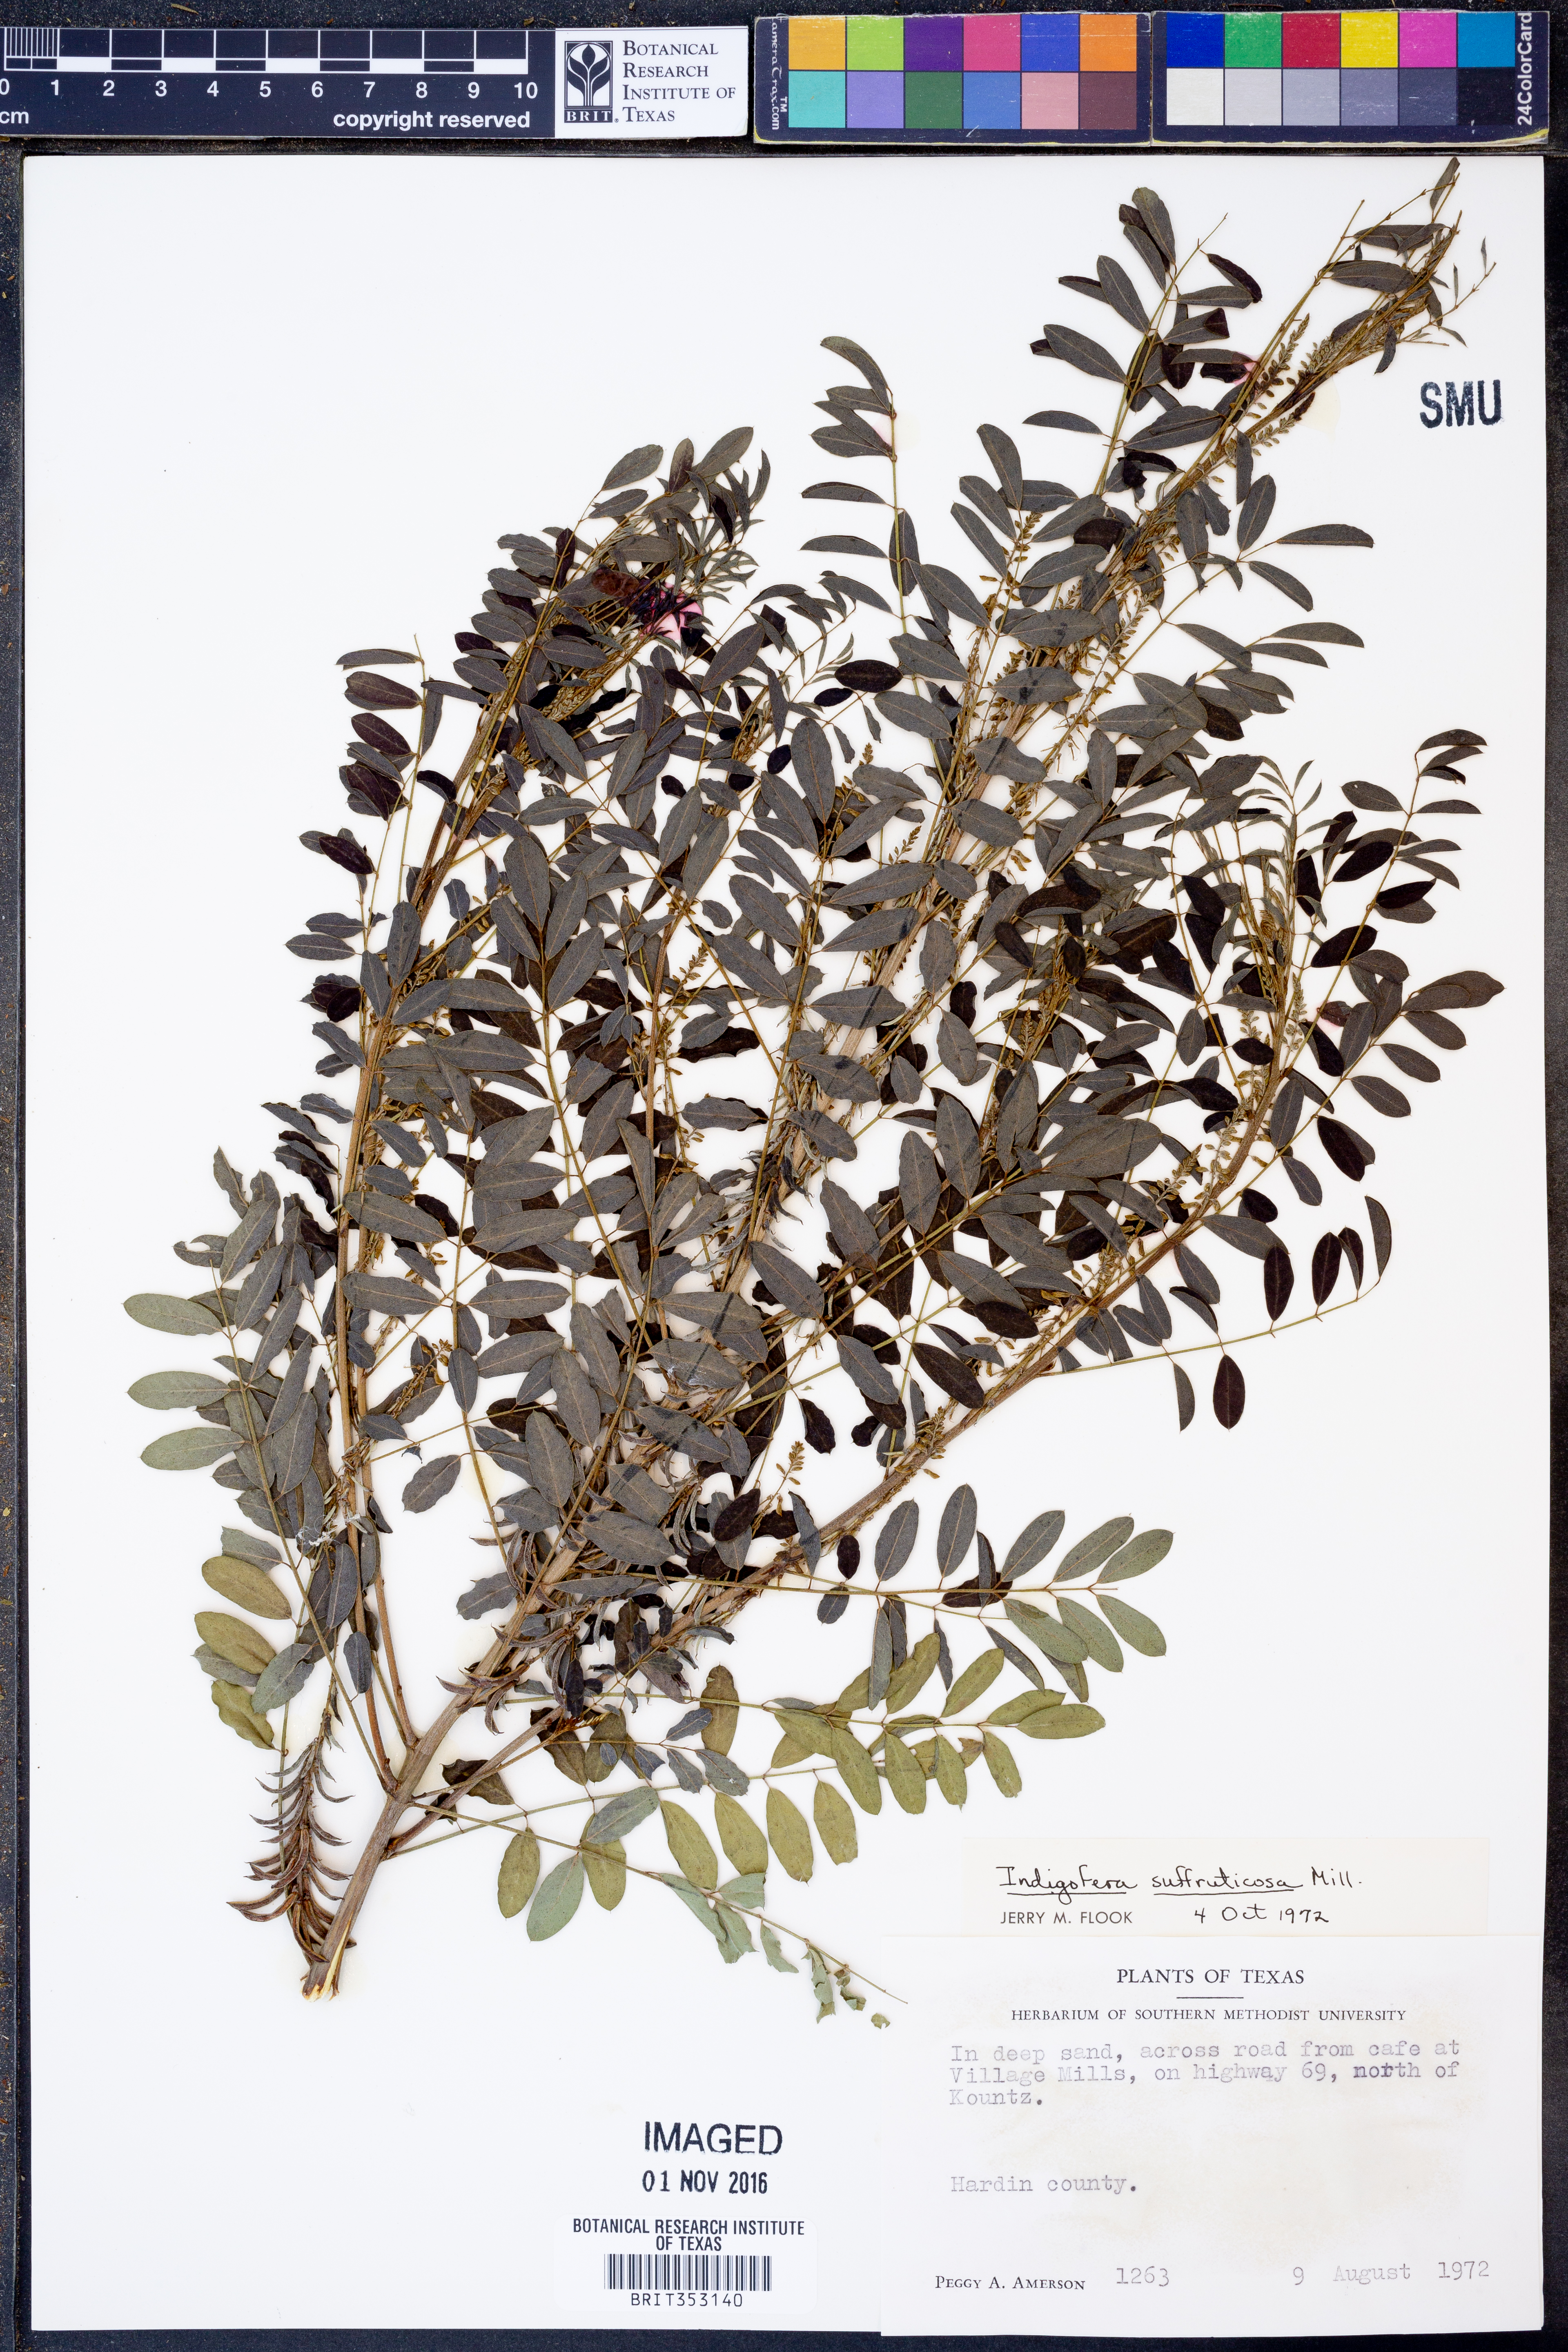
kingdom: Plantae
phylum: Tracheophyta
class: Magnoliopsida
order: Fabales
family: Fabaceae
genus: Indigofera
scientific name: Indigofera suffruticosa
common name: Anil de pasto
